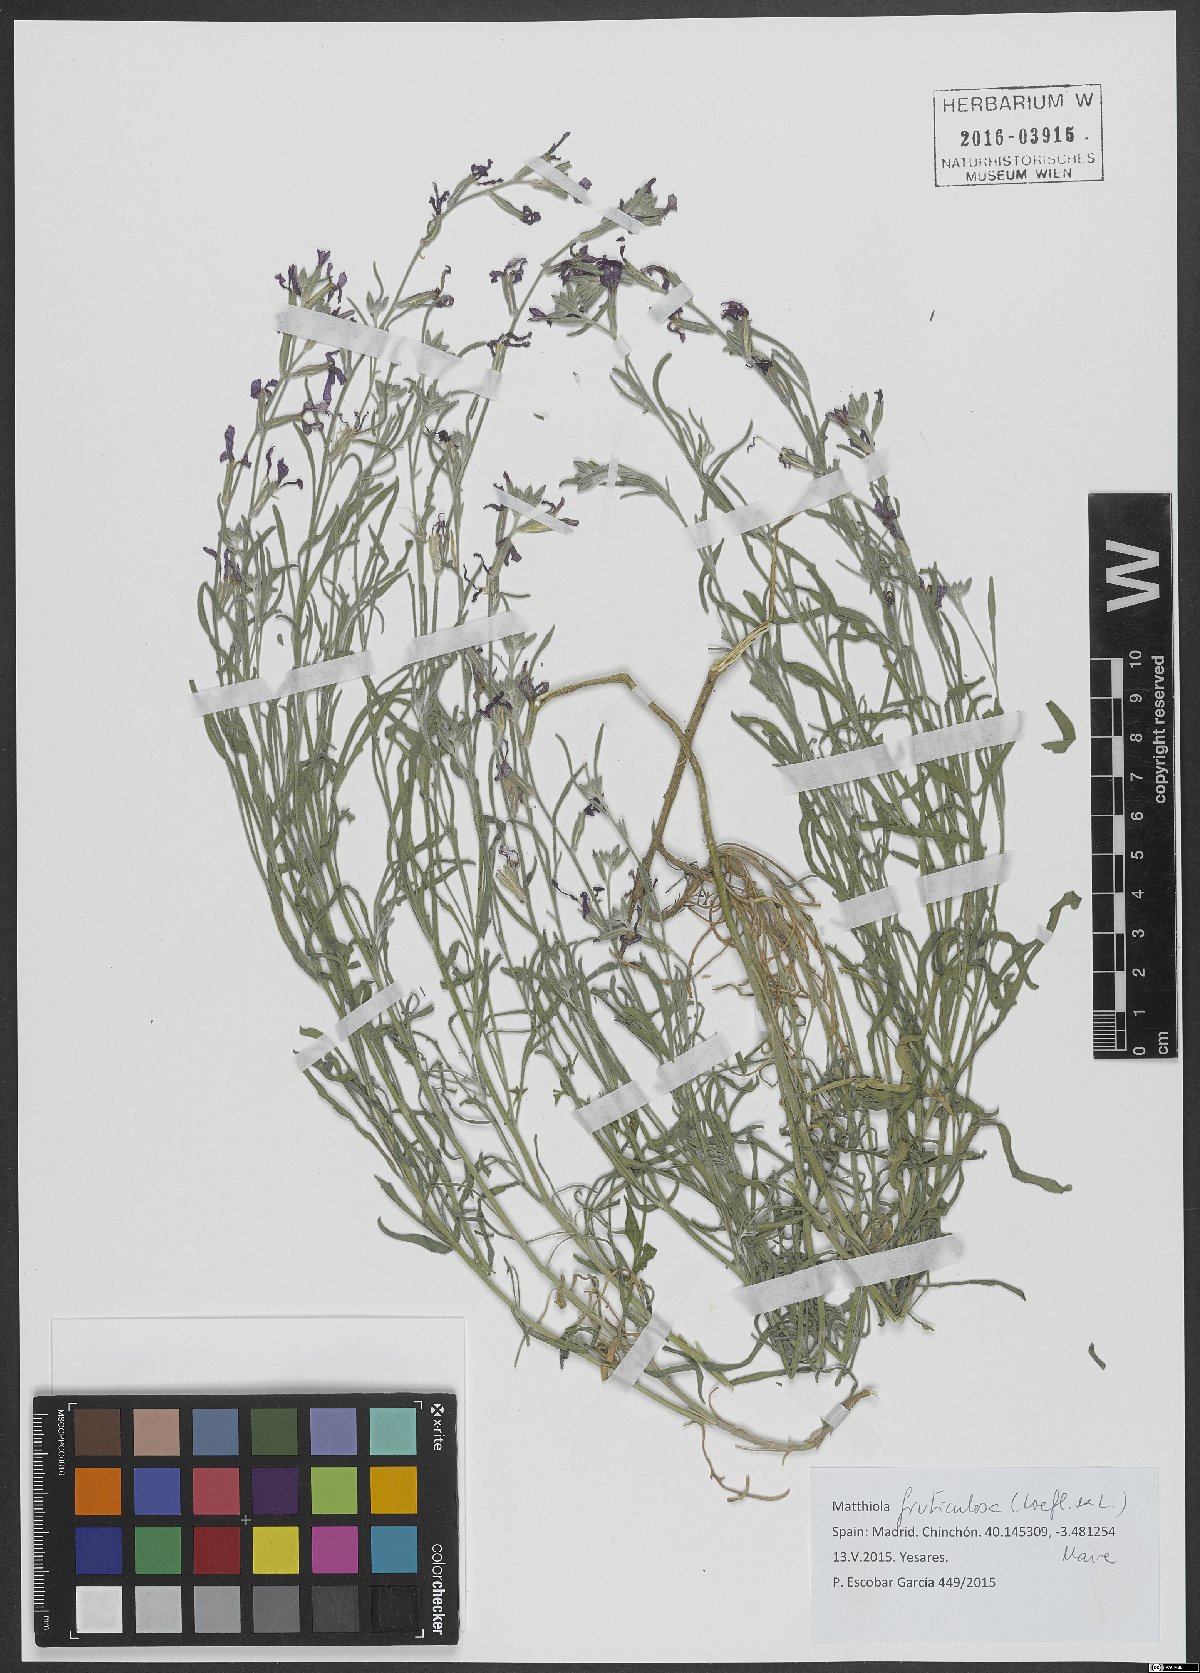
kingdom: Plantae
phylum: Tracheophyta
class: Magnoliopsida
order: Brassicales
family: Brassicaceae
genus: Matthiola
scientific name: Matthiola fruticulosa
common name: Sad stock
